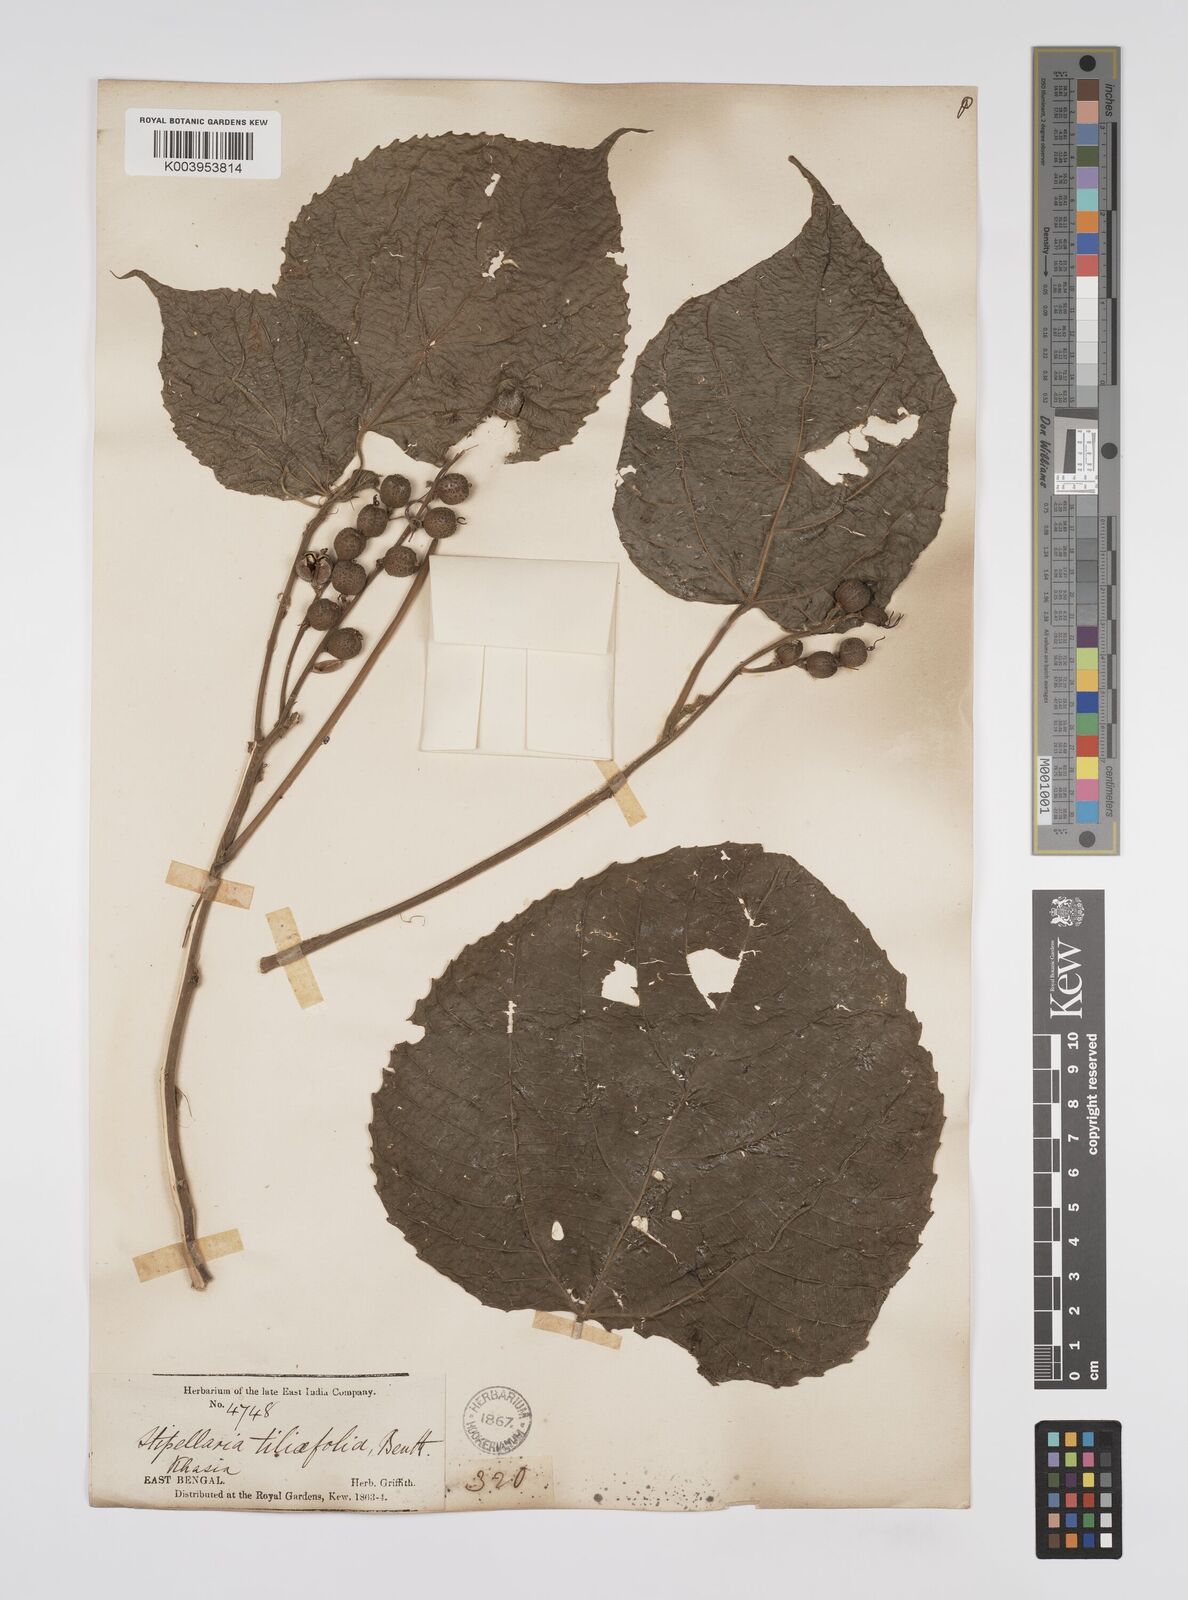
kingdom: Plantae
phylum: Tracheophyta
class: Magnoliopsida
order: Malpighiales
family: Euphorbiaceae
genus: Alchornea
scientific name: Alchornea tiliifolia
